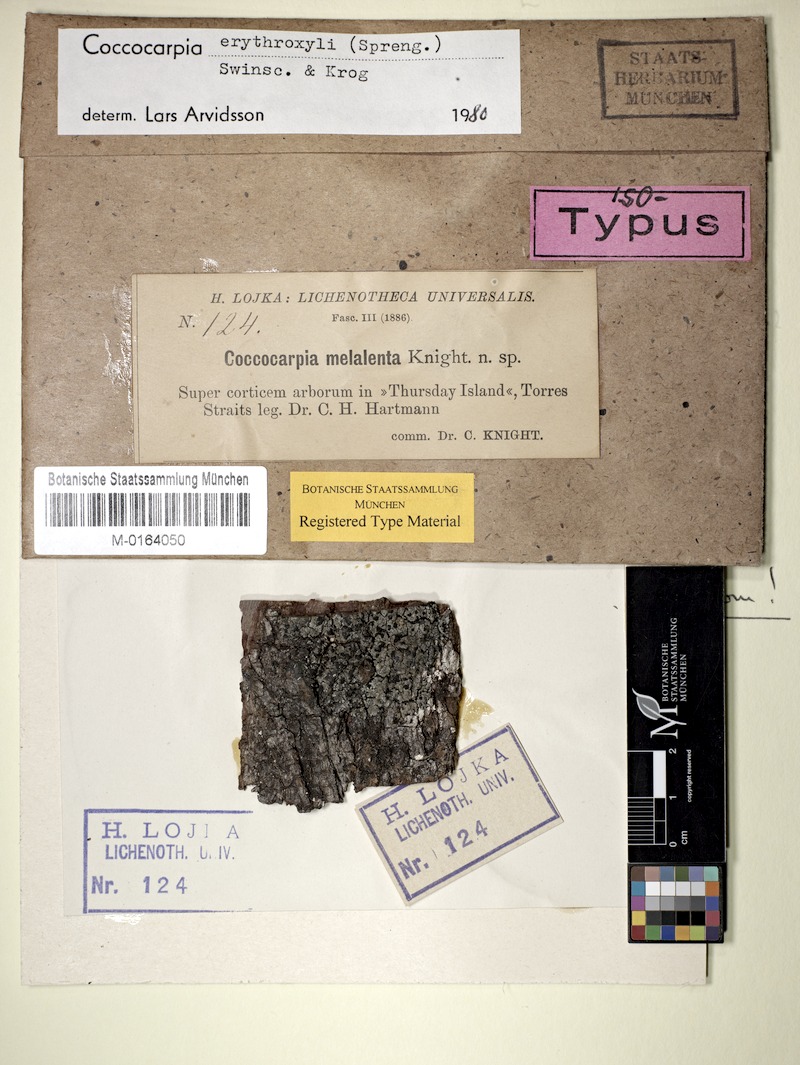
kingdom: Fungi
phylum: Ascomycota
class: Lecanoromycetes
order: Peltigerales
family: Coccocarpiaceae
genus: Coccocarpia
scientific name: Coccocarpia erythroxyli
